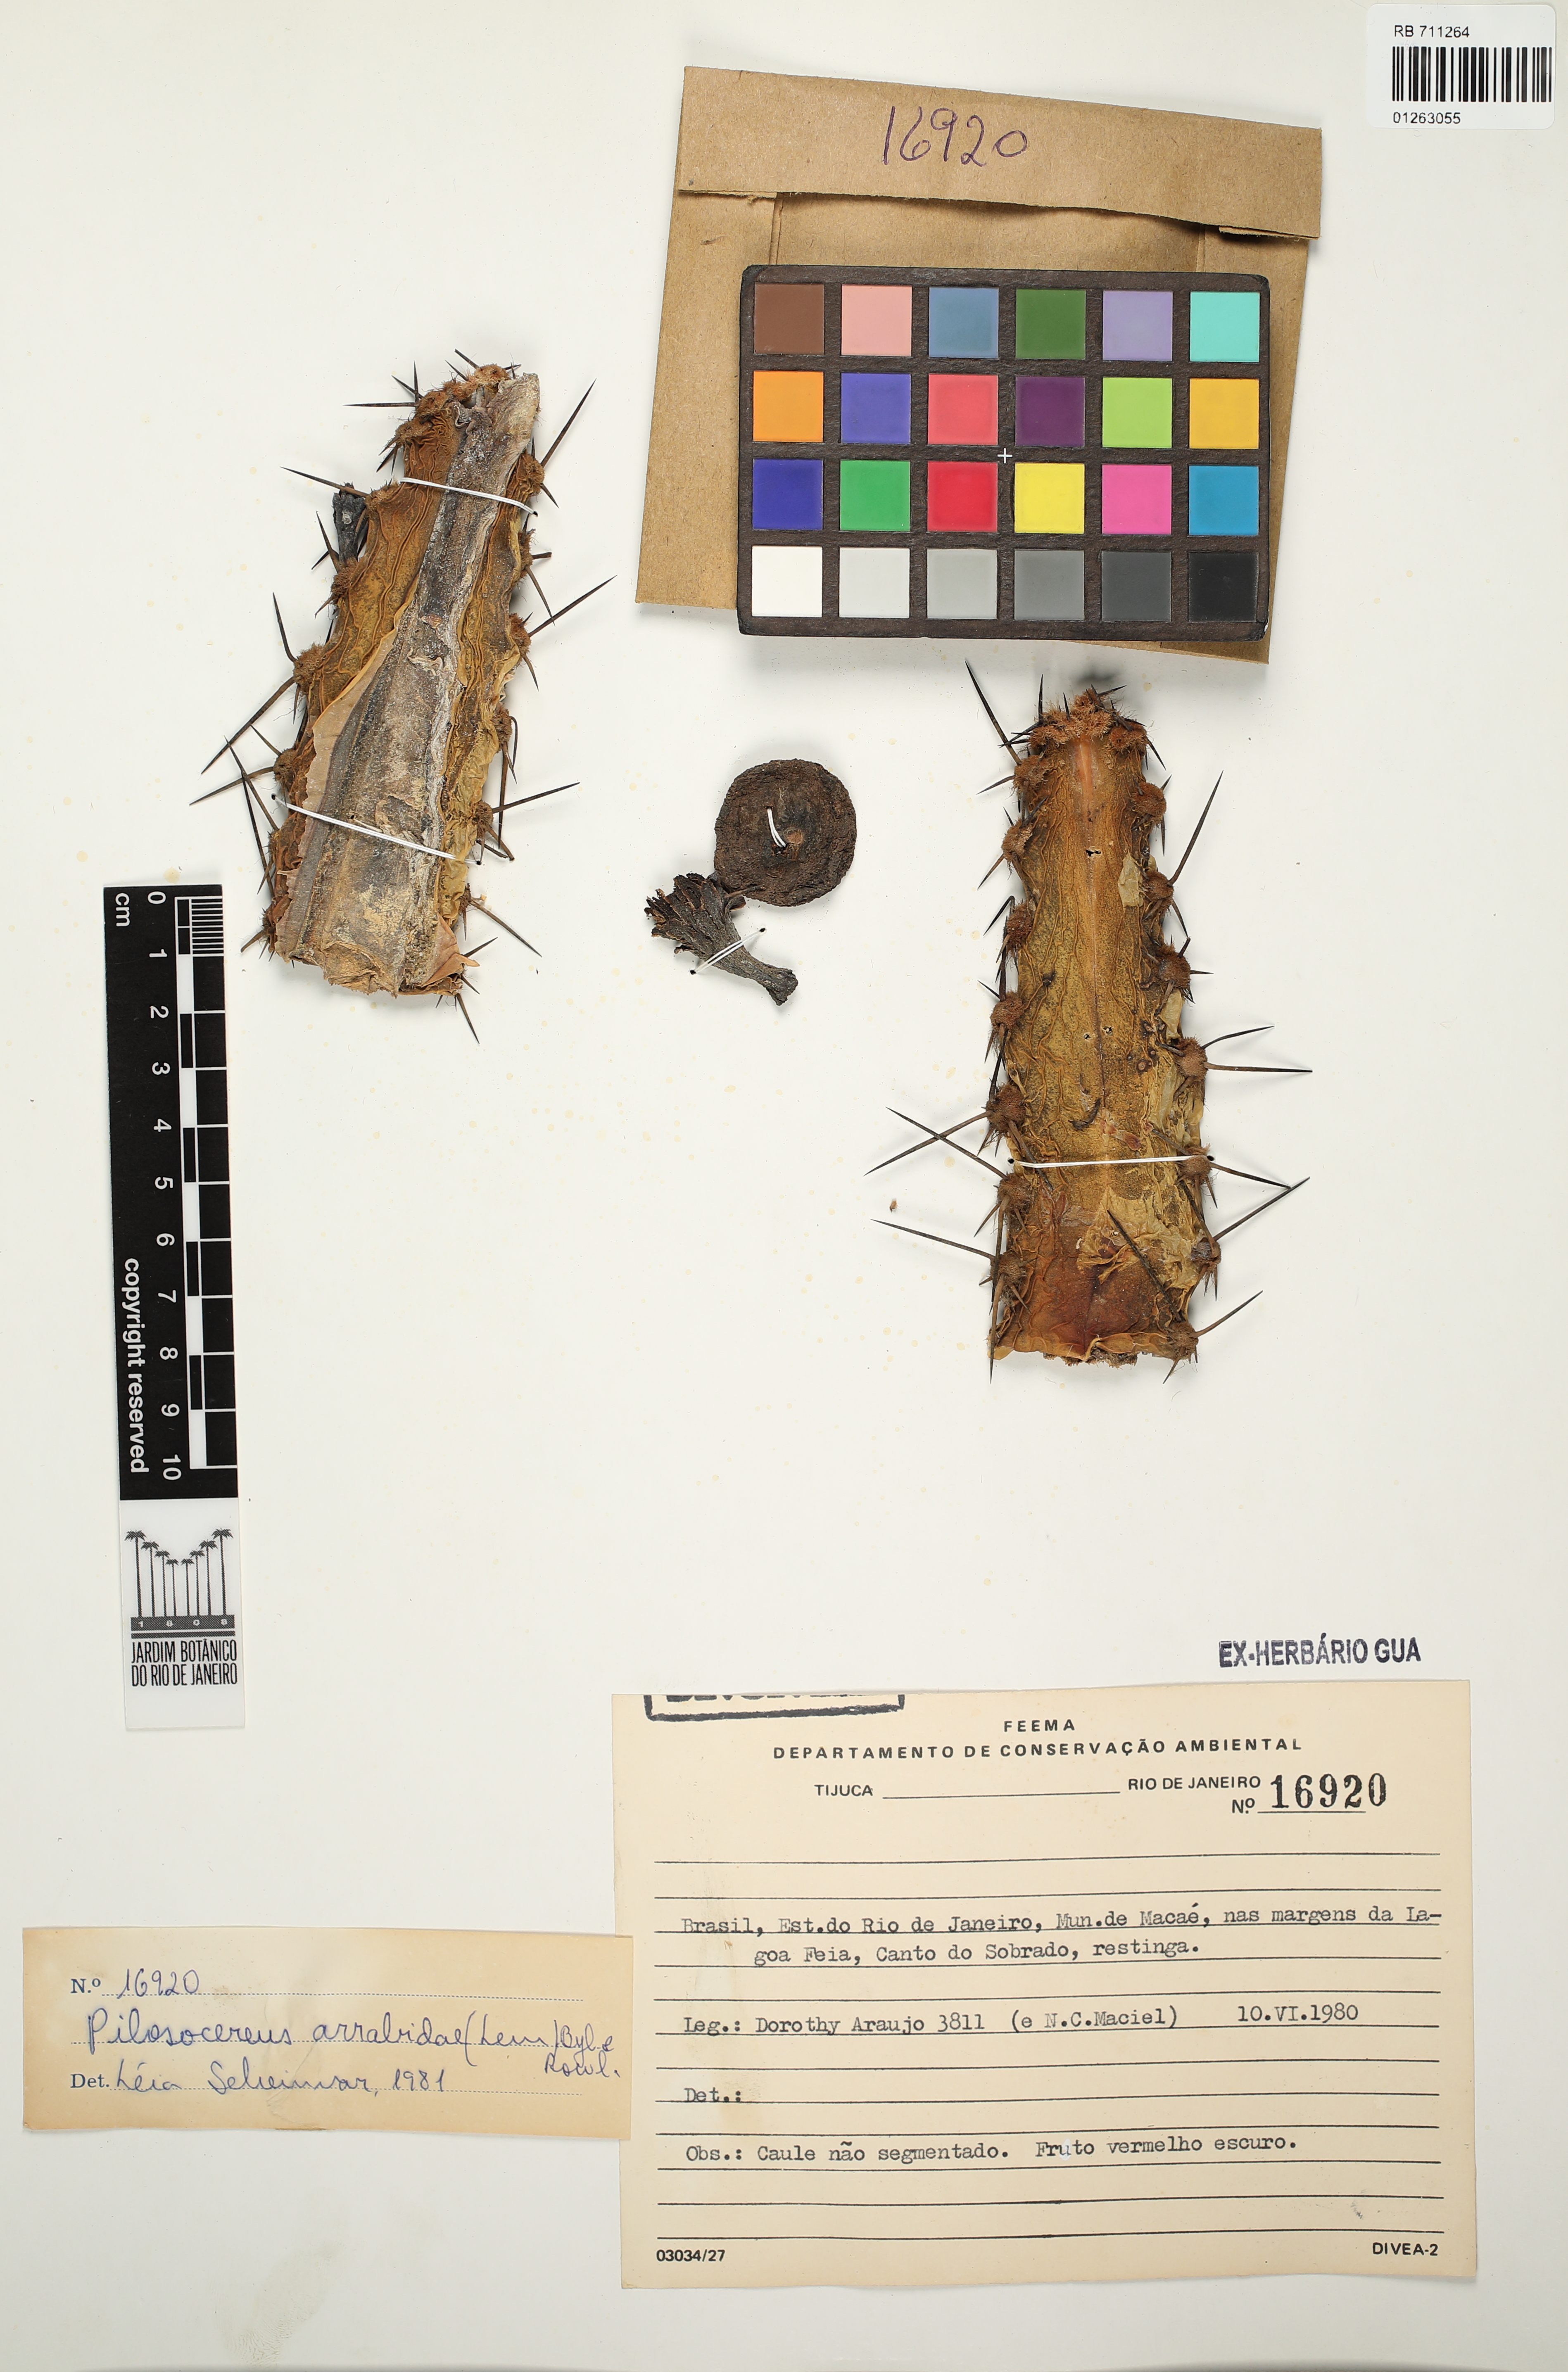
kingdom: Plantae
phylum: Tracheophyta
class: Magnoliopsida
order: Caryophyllales
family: Cactaceae
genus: Pilosocereus
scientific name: Pilosocereus arrabidae
